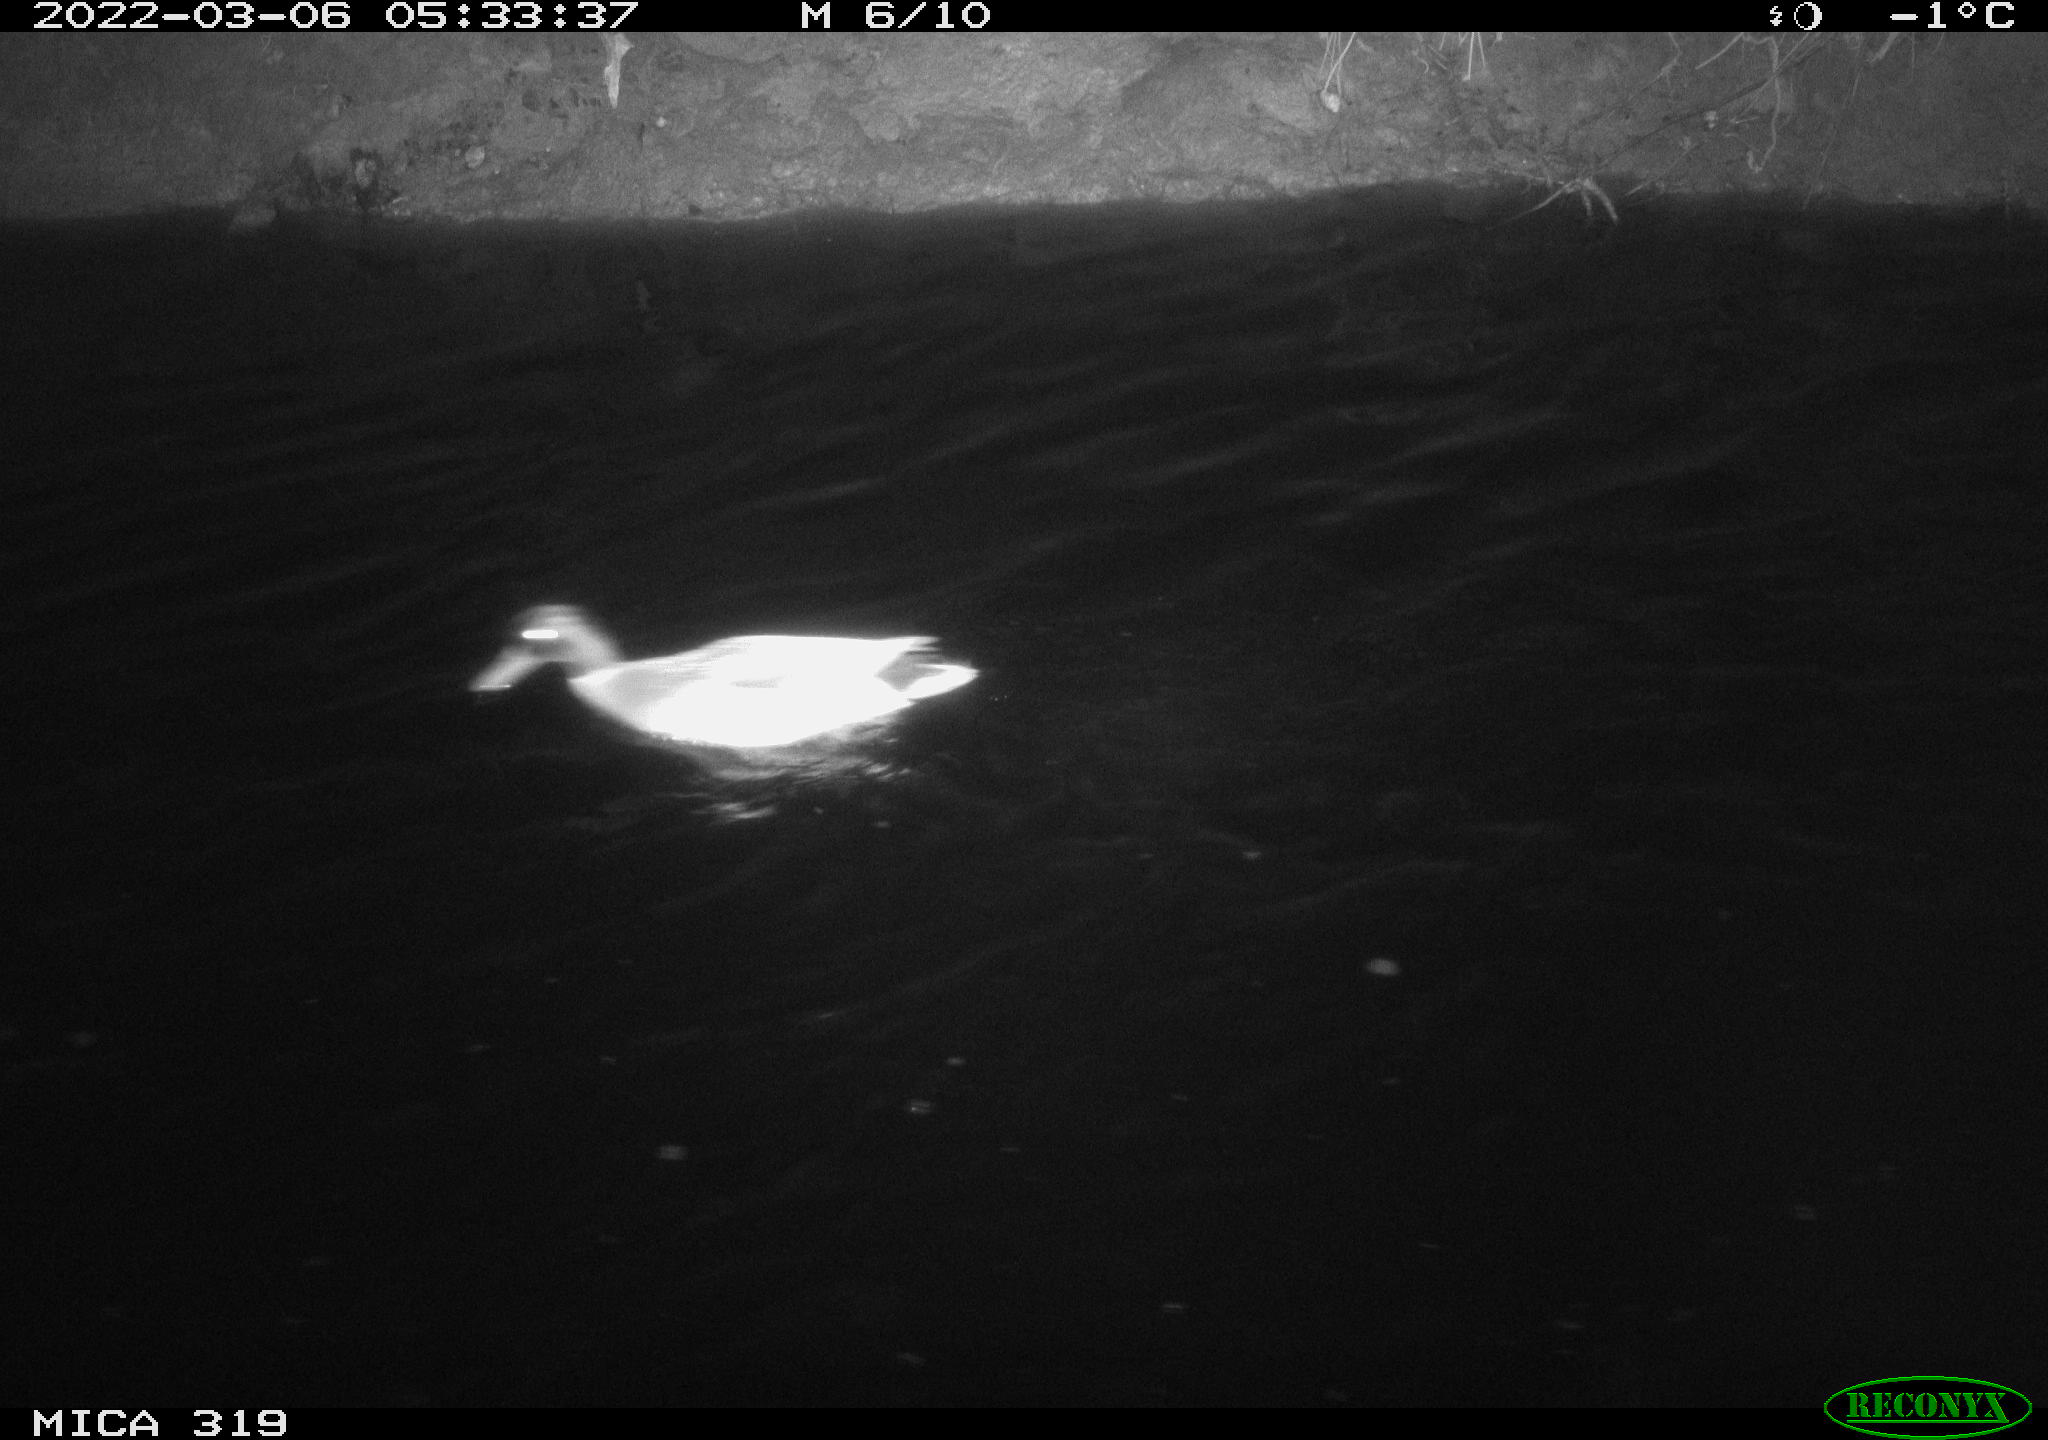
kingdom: Animalia
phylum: Chordata
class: Aves
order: Anseriformes
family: Anatidae
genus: Anas
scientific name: Anas platyrhynchos
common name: Mallard
